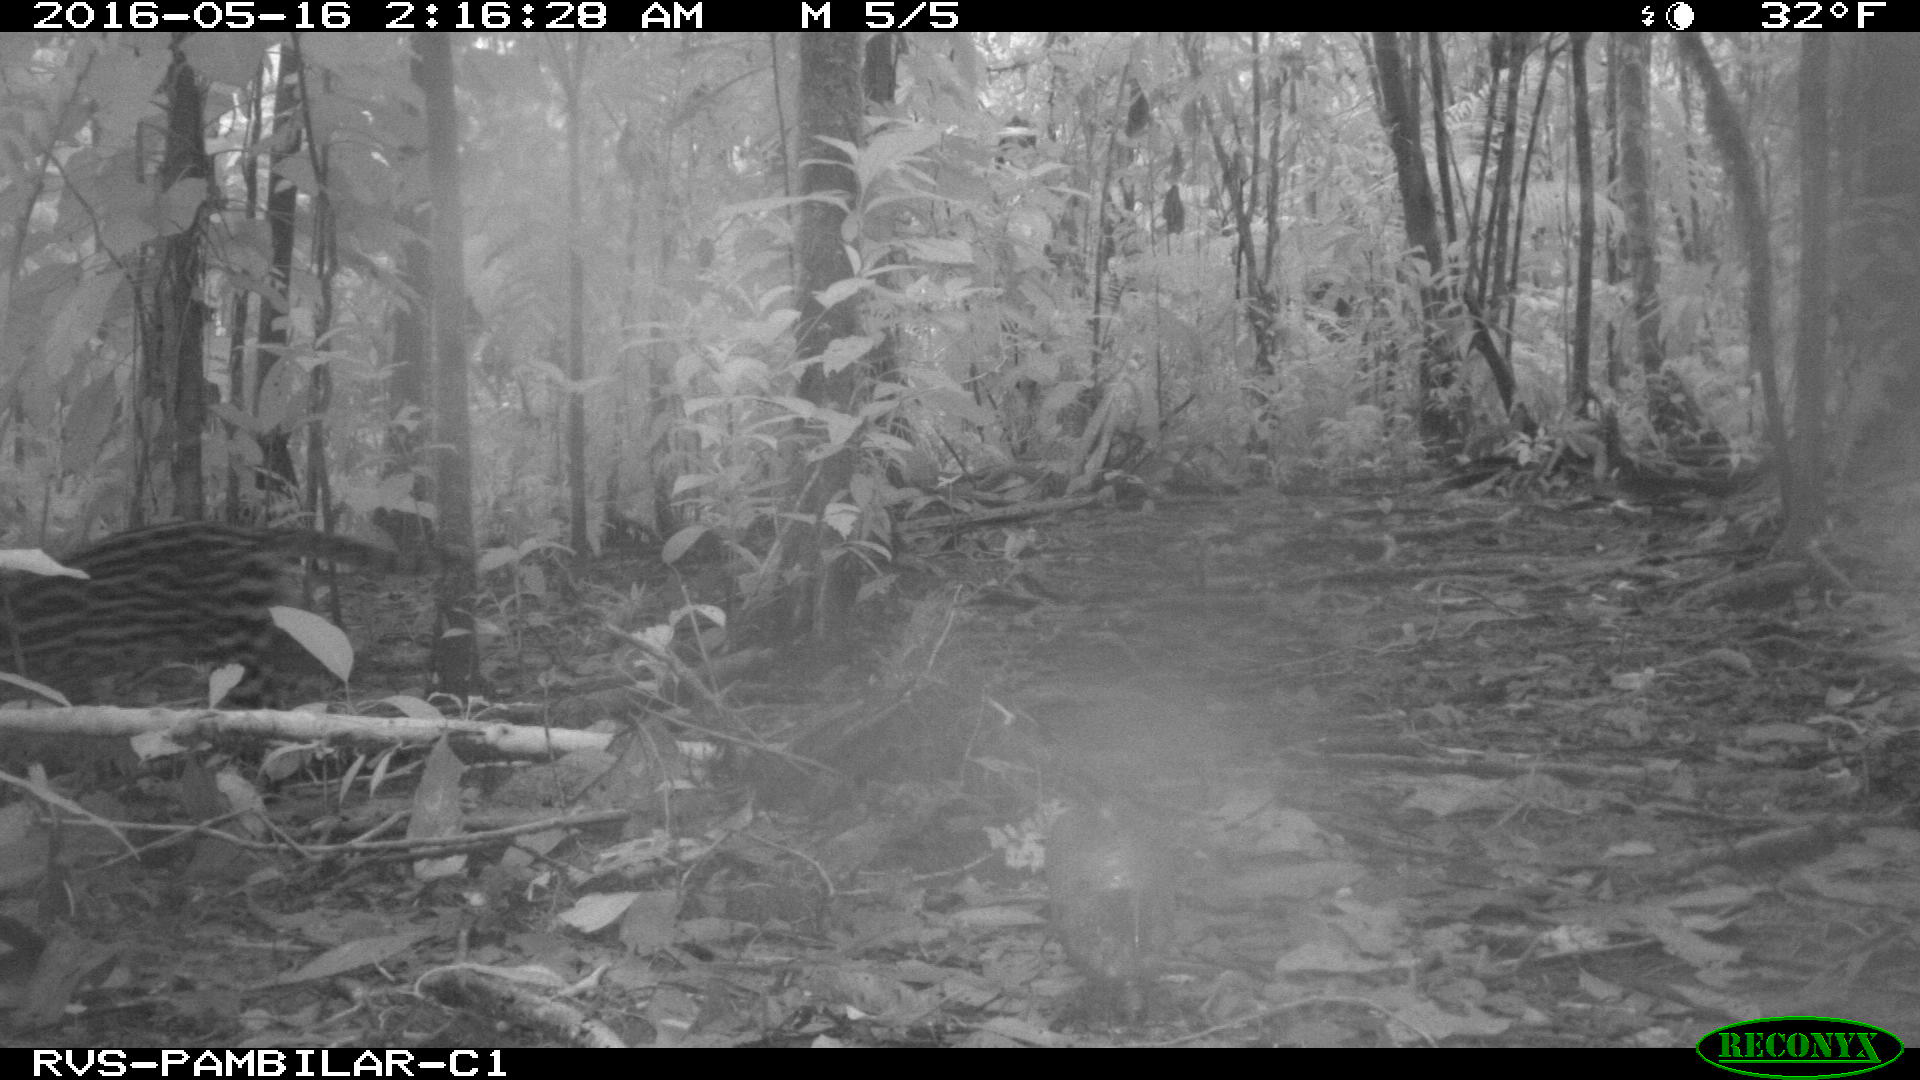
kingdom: Animalia
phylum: Chordata
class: Mammalia
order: Carnivora
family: Felidae
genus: Leopardus
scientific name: Leopardus pardalis
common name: Ocelot
